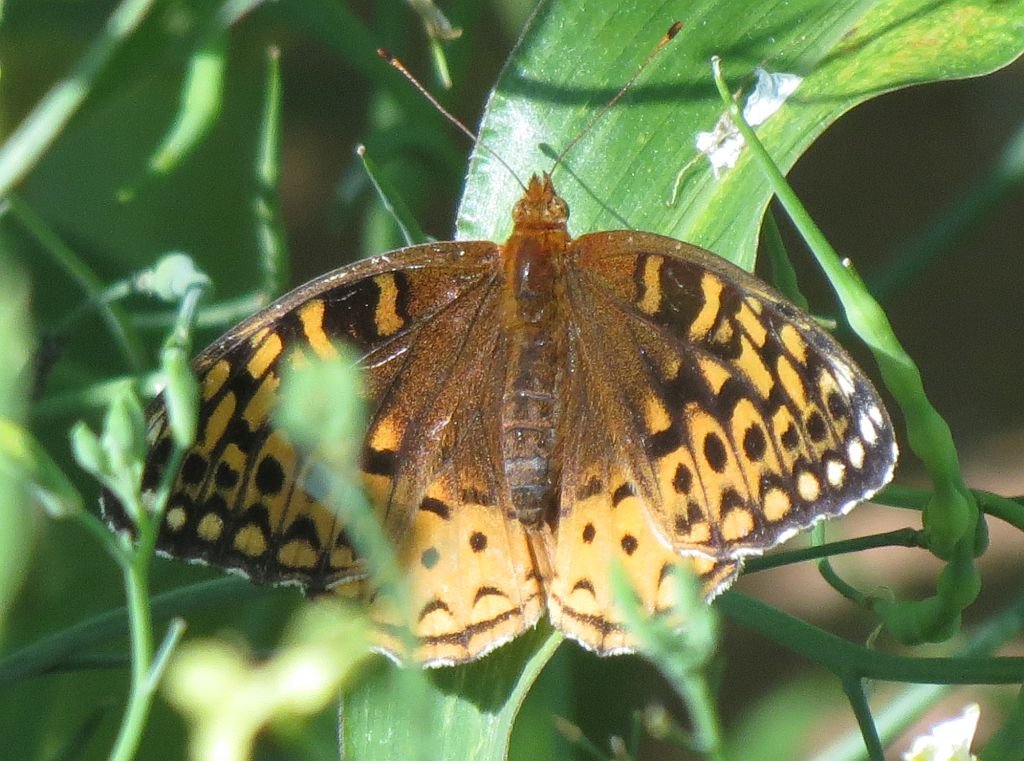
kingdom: Animalia
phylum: Arthropoda
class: Insecta
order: Lepidoptera
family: Nymphalidae
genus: Speyeria
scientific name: Speyeria cybele
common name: Great Spangled Fritillary
